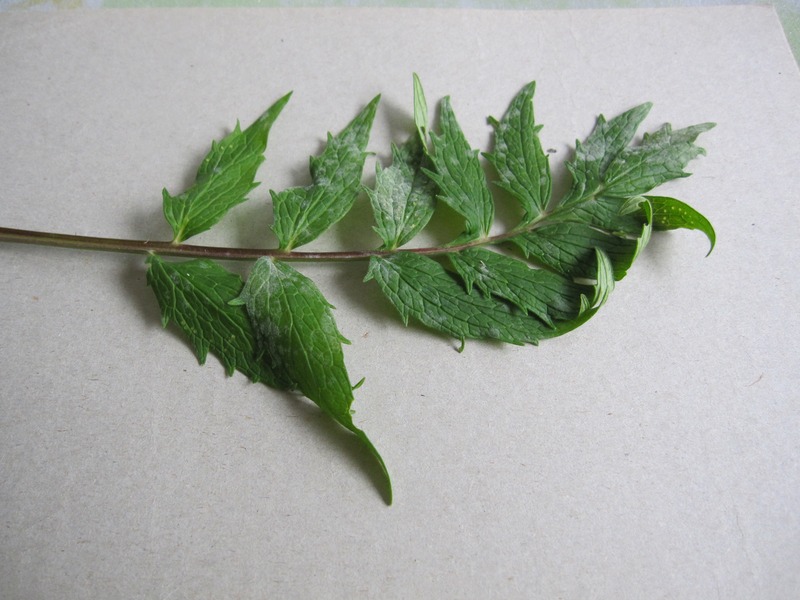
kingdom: Fungi
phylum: Ascomycota
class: Leotiomycetes
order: Helotiales
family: Erysiphaceae
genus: Golovinomyces
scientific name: Golovinomyces valerianae
